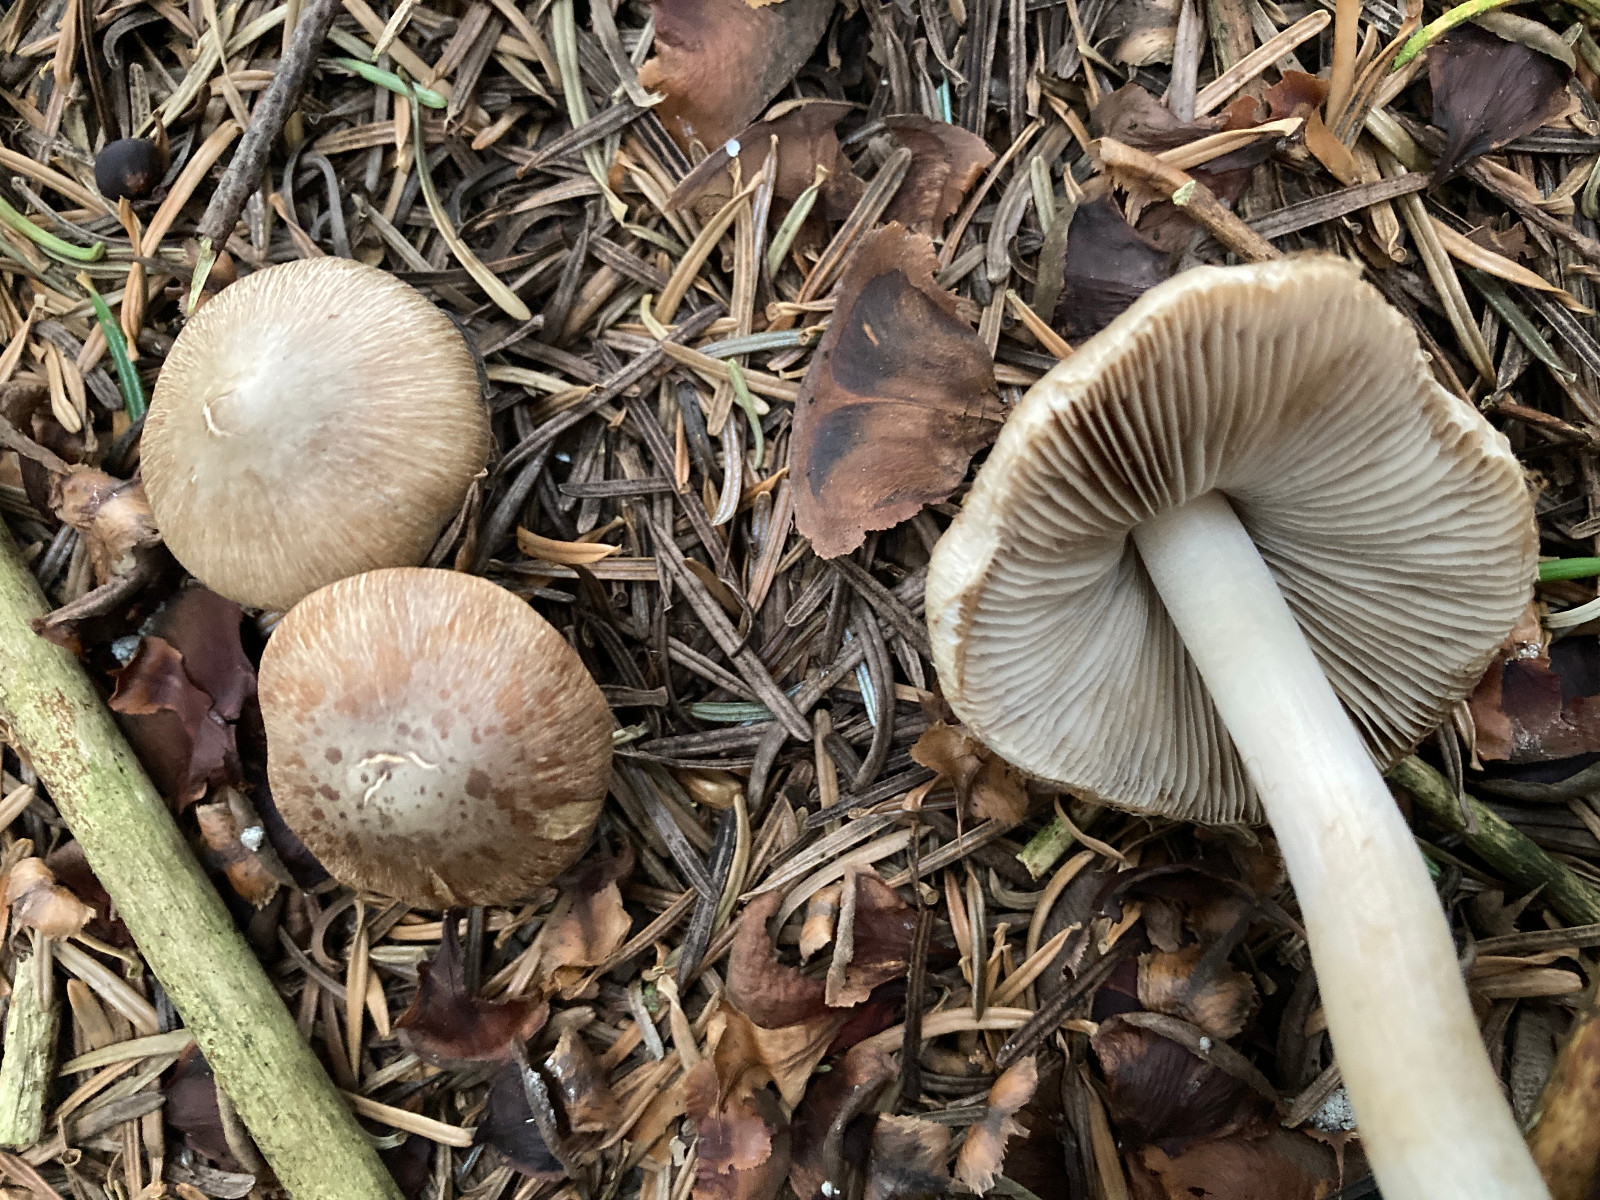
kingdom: Fungi
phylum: Basidiomycota
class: Agaricomycetes
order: Agaricales
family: Inocybaceae
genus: Inocybe
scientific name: Inocybe
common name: trævlhat
